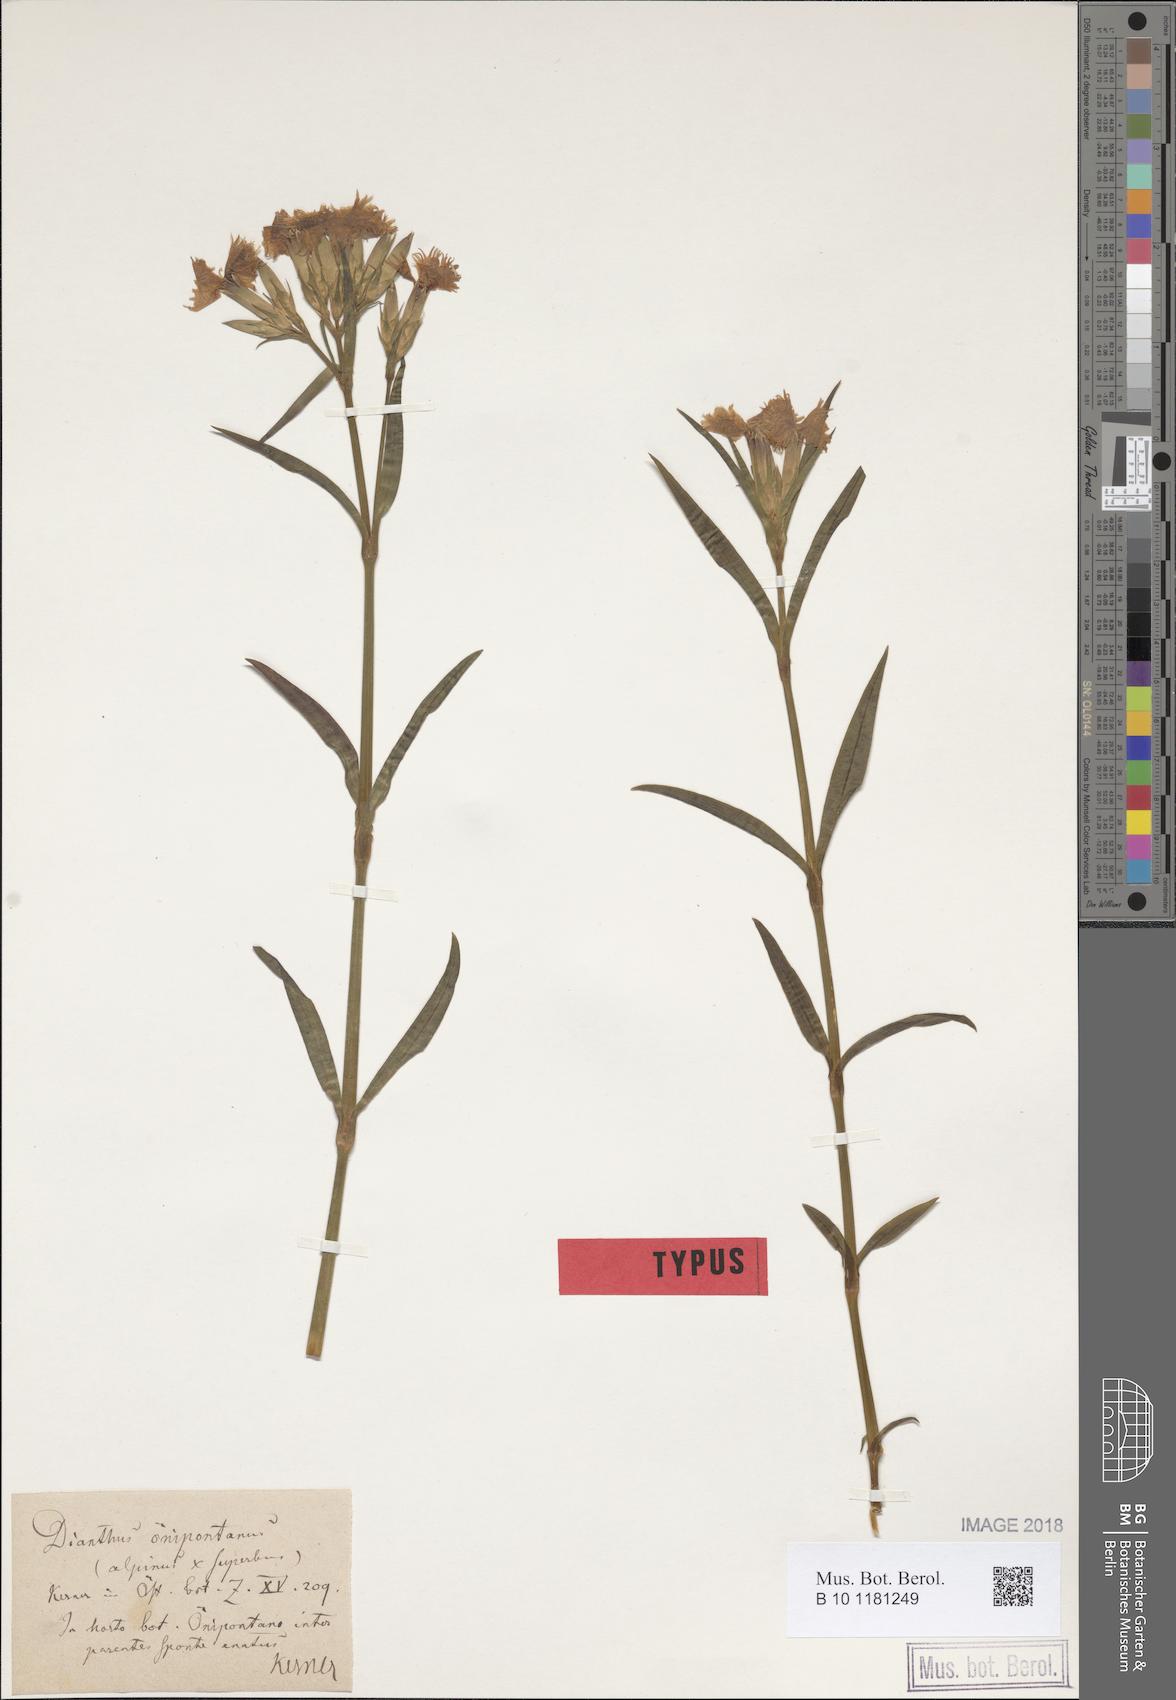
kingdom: Plantae
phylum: Tracheophyta
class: Magnoliopsida
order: Caryophyllales
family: Caryophyllaceae
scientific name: Caryophyllaceae
